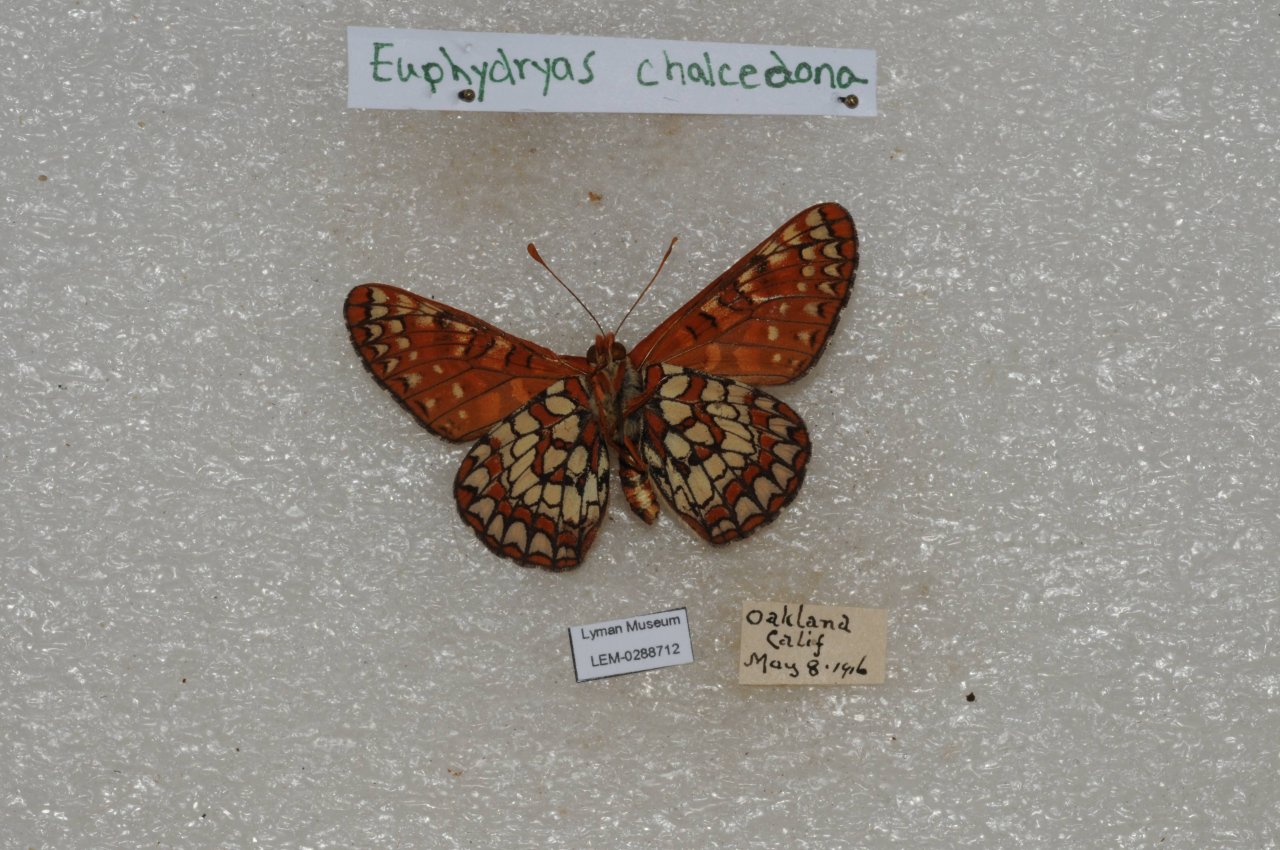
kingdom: Animalia
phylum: Arthropoda
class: Insecta
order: Lepidoptera
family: Nymphalidae
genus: Occidryas
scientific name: Occidryas chalcedona
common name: Chalcedon Checkerspot
